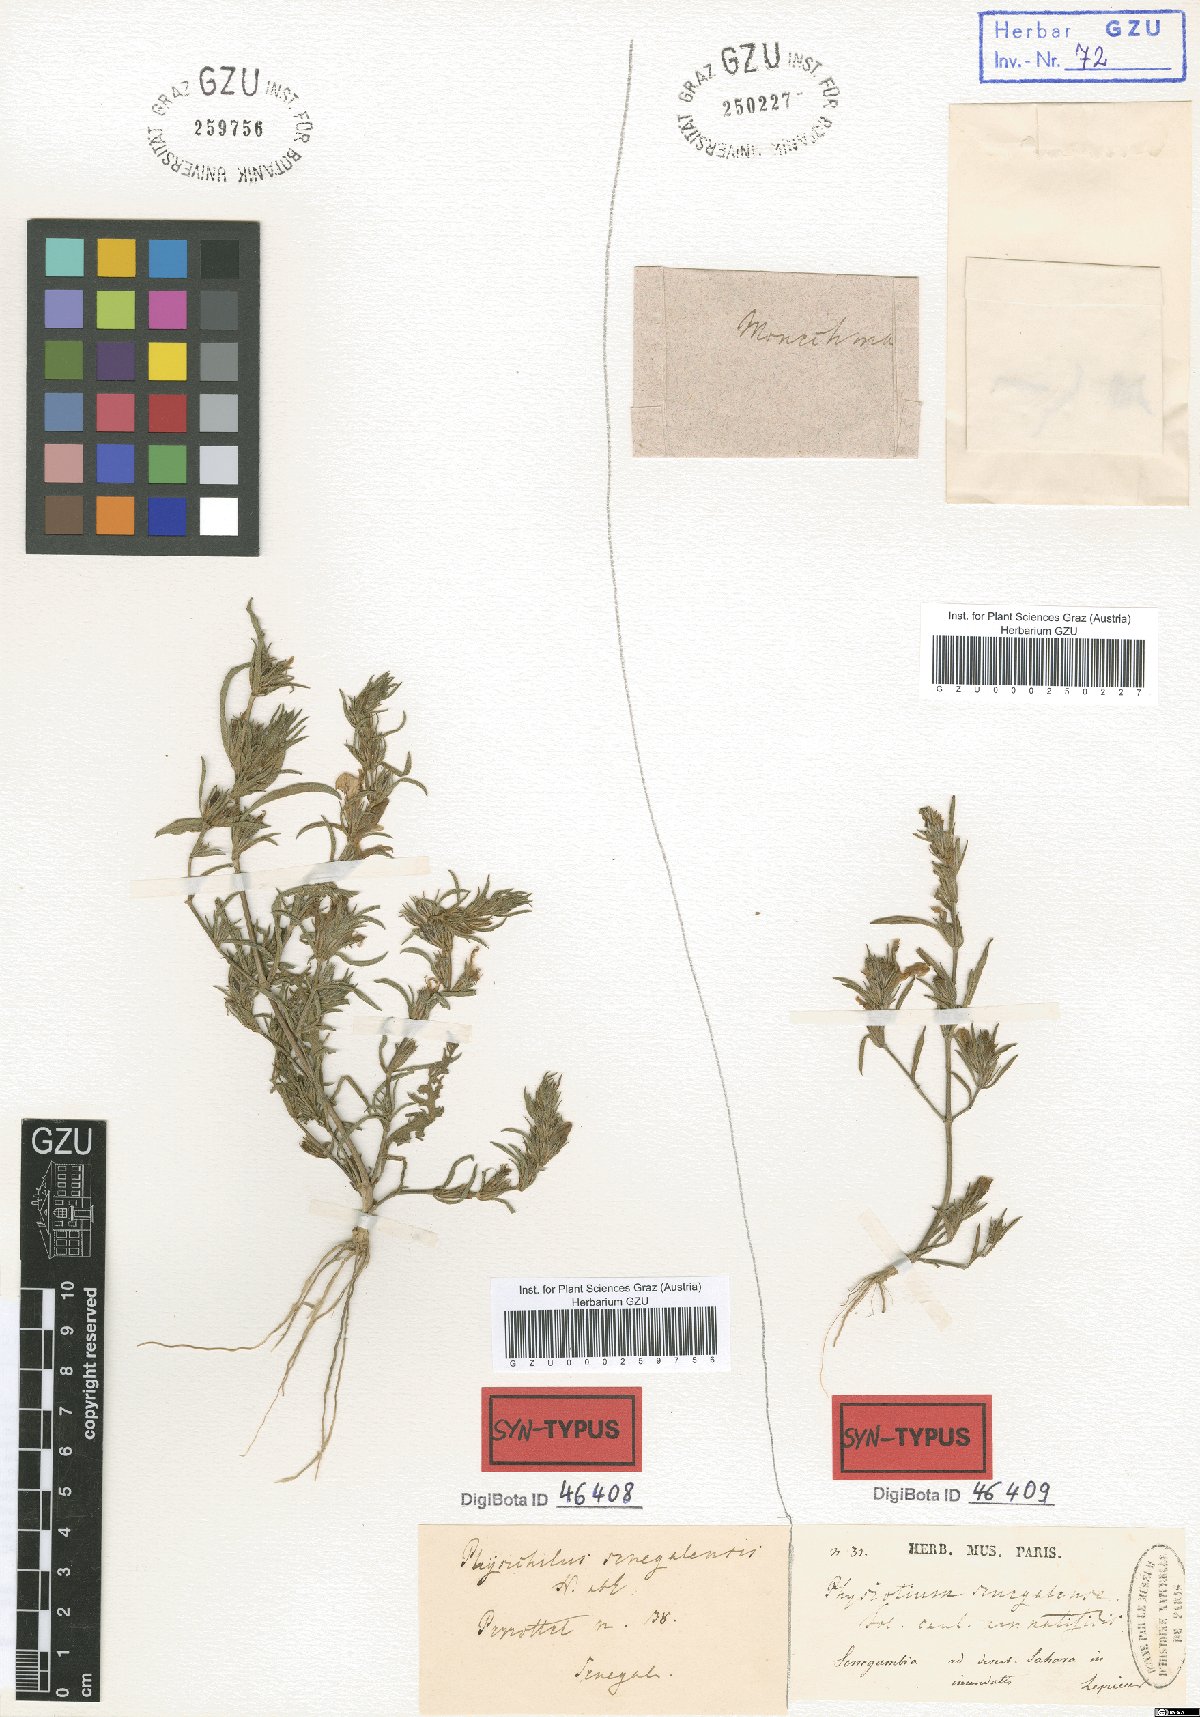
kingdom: Plantae
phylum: Tracheophyta
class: Magnoliopsida
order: Lamiales
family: Acanthaceae
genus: Hygrophila
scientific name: Hygrophila micrantha
